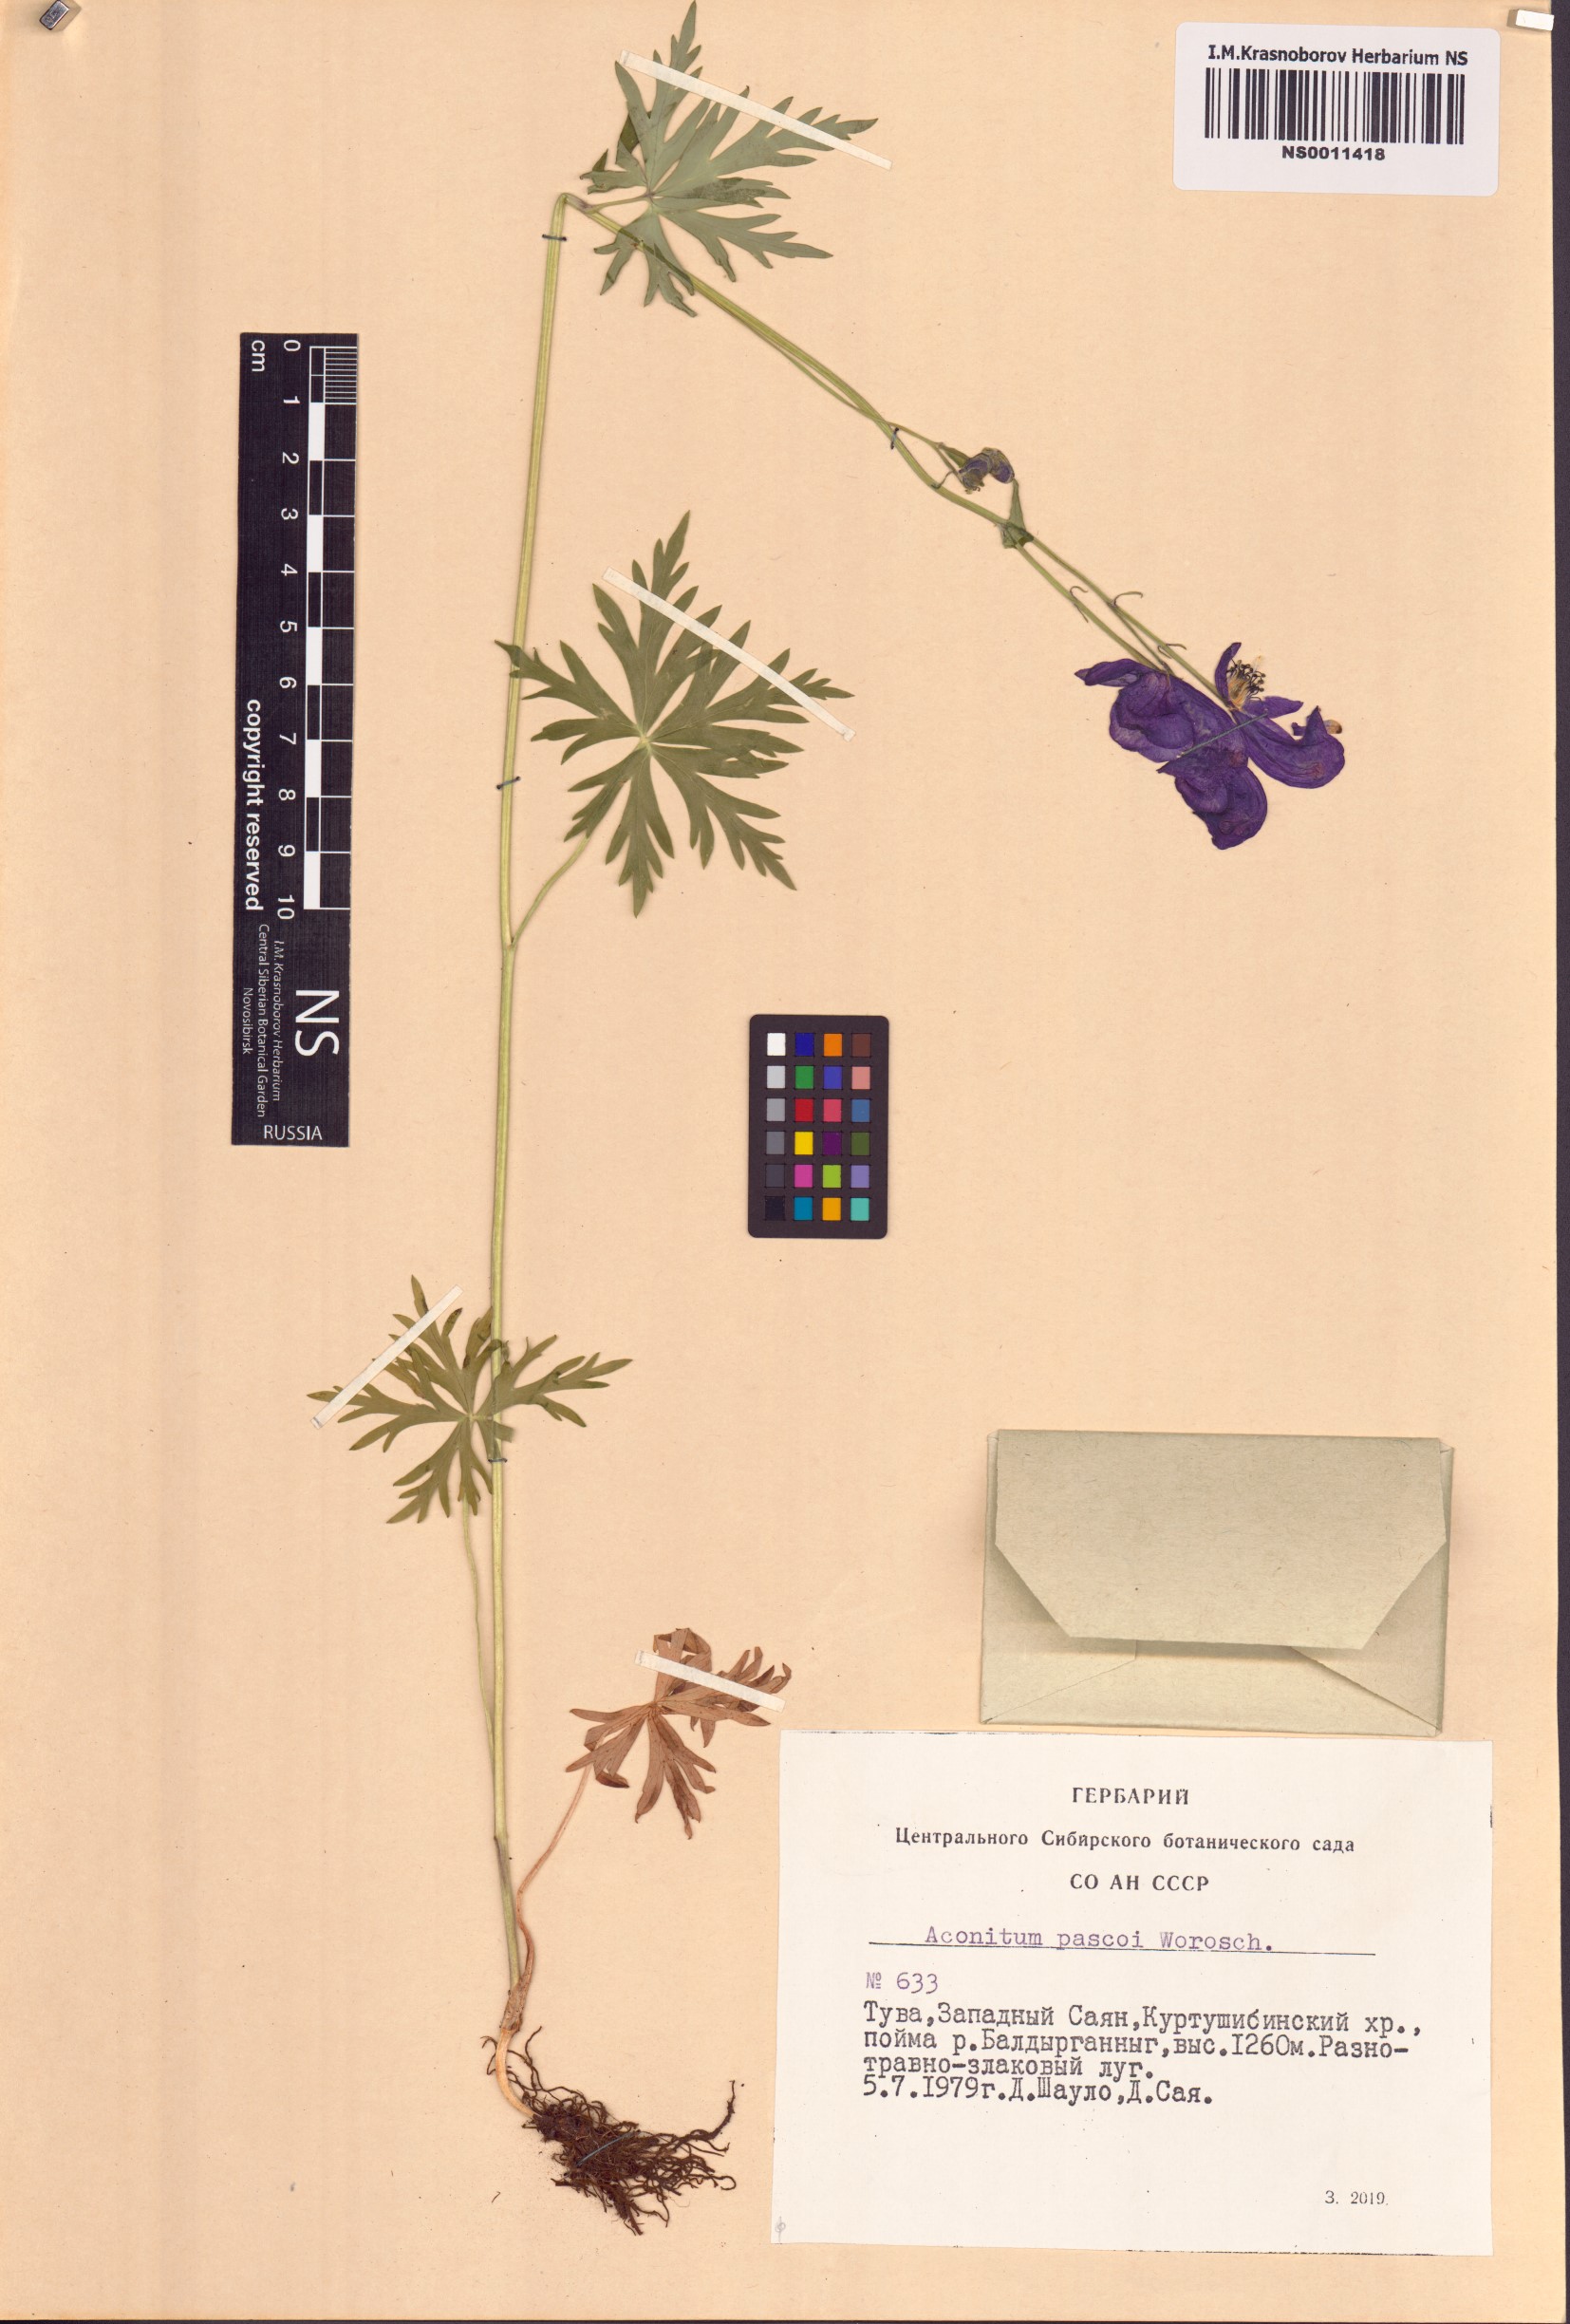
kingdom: Plantae
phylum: Tracheophyta
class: Magnoliopsida
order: Ranunculales
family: Ranunculaceae
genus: Aconitum
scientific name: Aconitum pascoi
